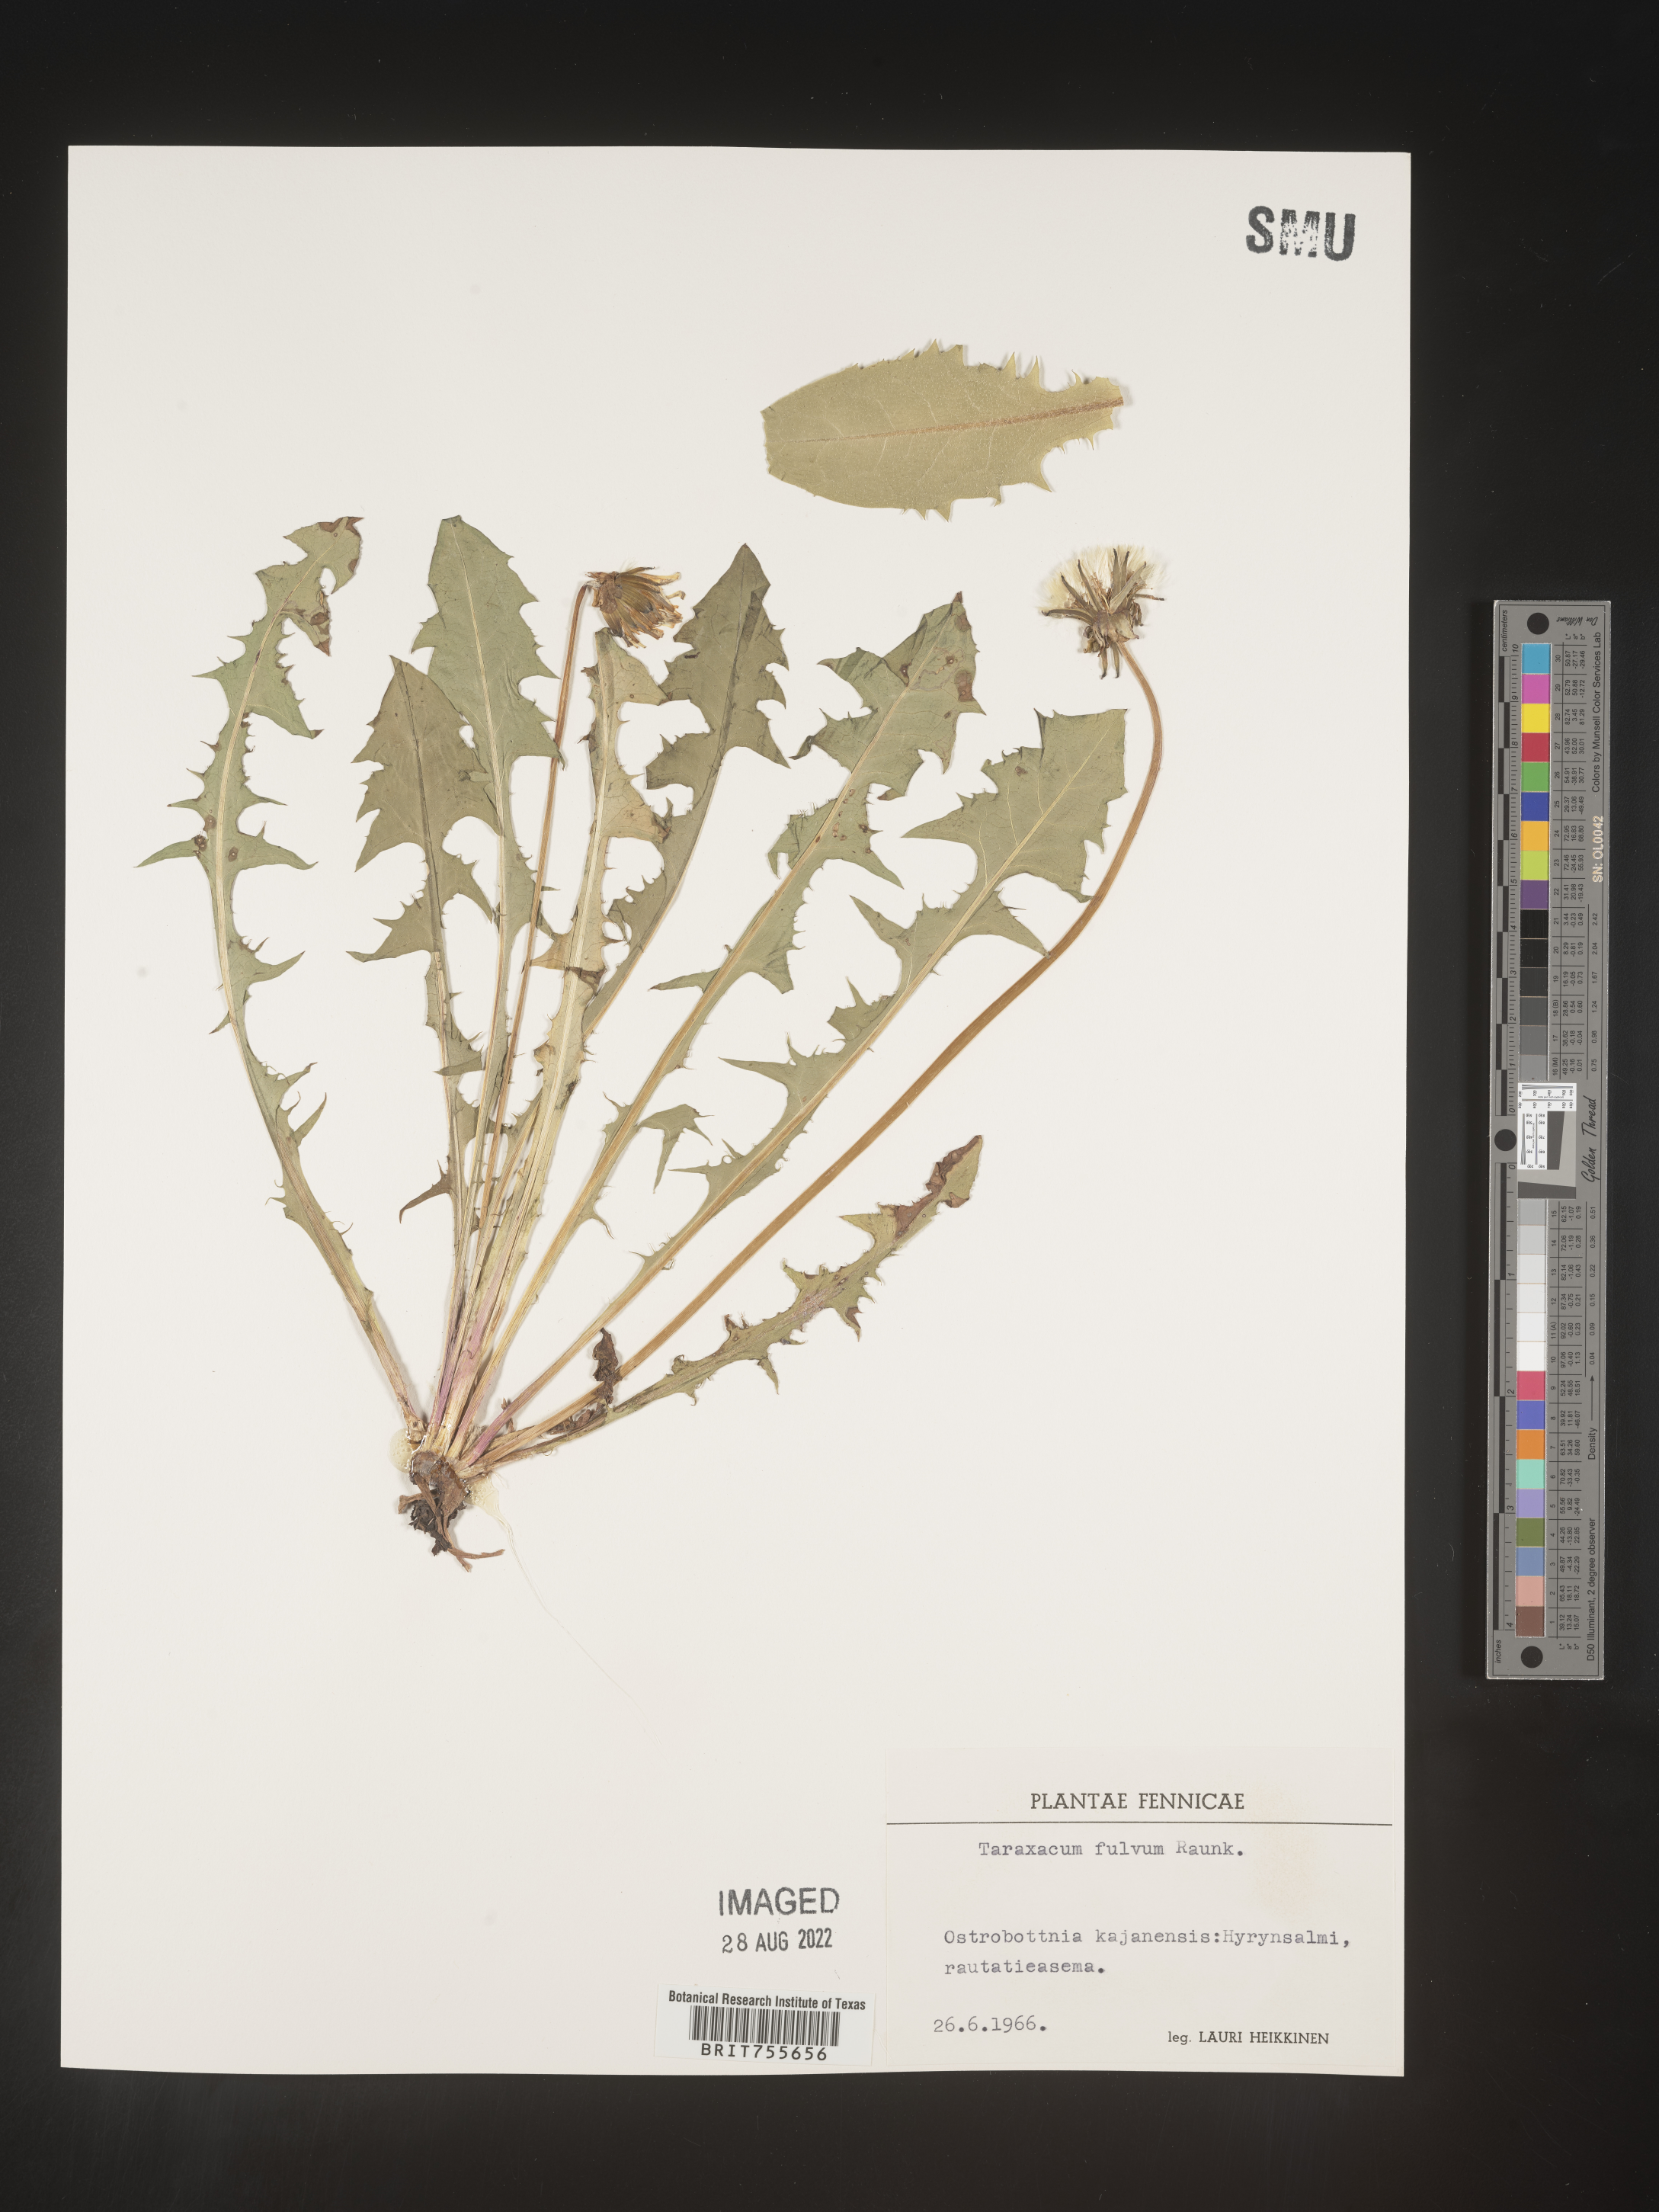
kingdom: Plantae
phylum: Tracheophyta
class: Magnoliopsida
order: Asterales
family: Asteraceae
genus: Taraxacum
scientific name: Taraxacum
